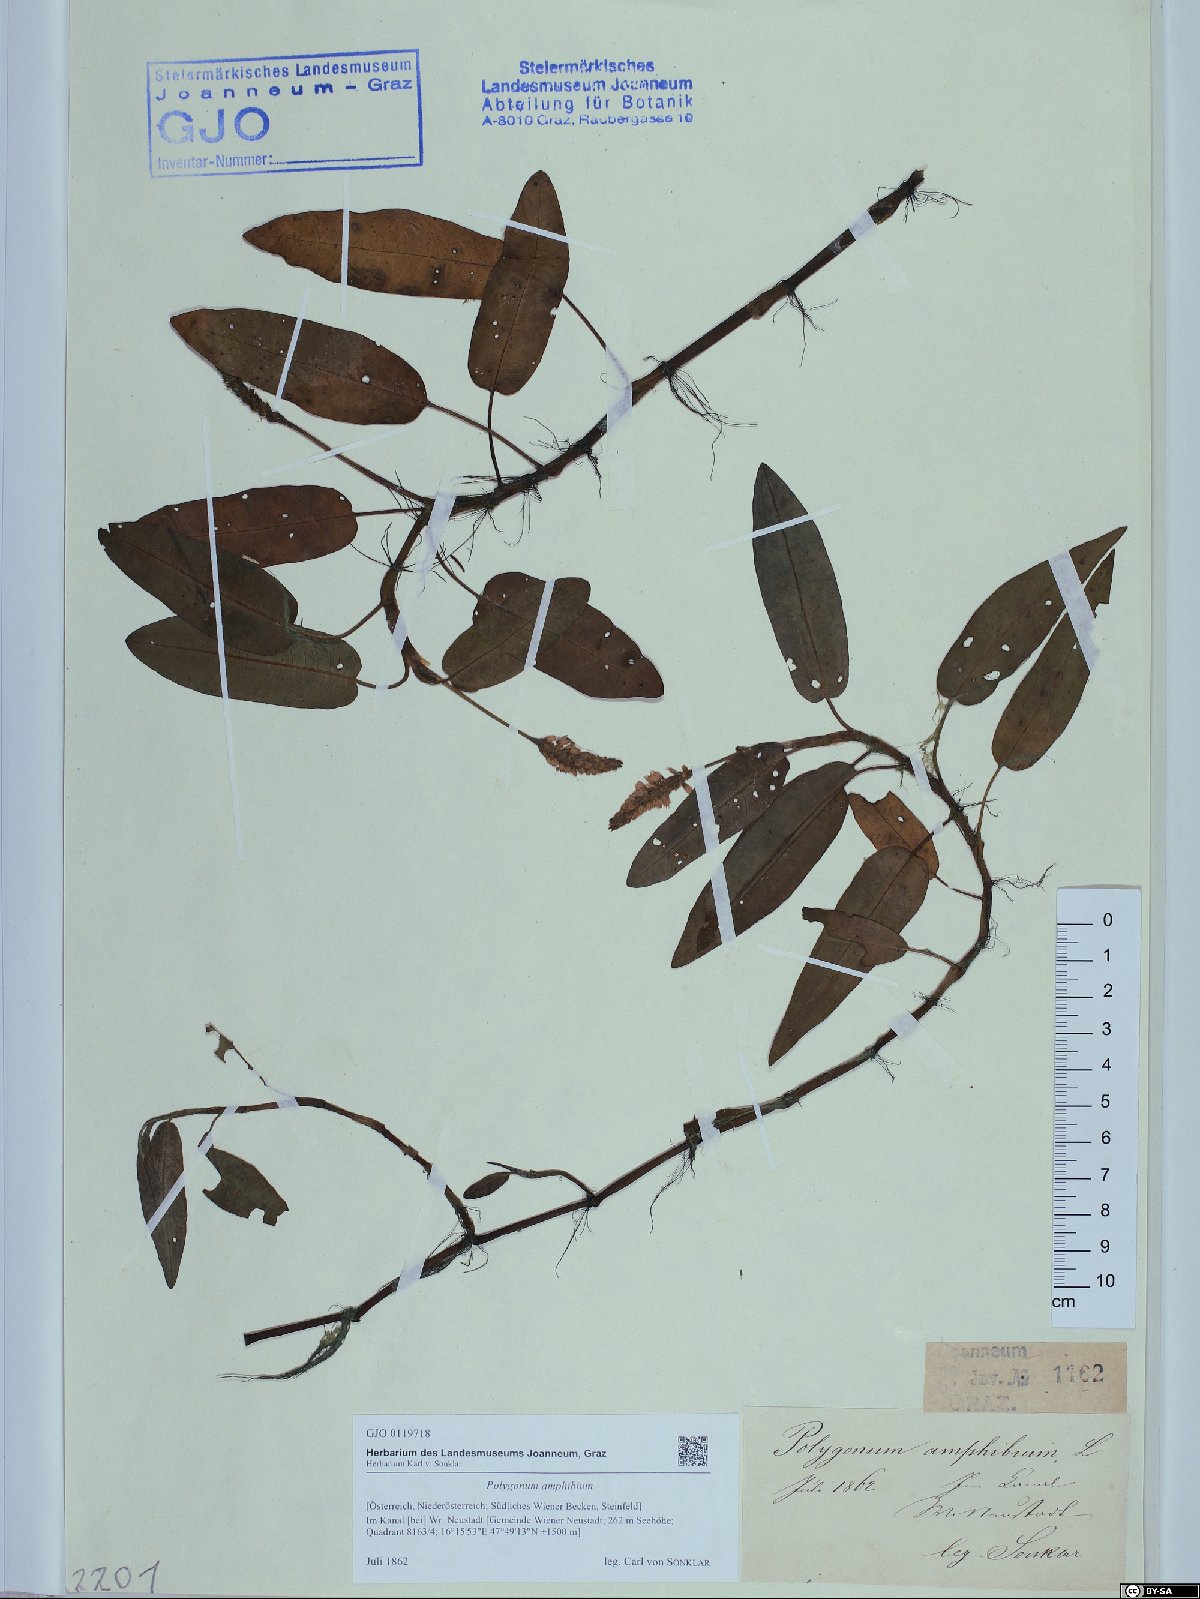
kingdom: Plantae
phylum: Tracheophyta
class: Magnoliopsida
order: Caryophyllales
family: Polygonaceae
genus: Persicaria
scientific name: Persicaria amphibia
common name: Amphibious bistort
